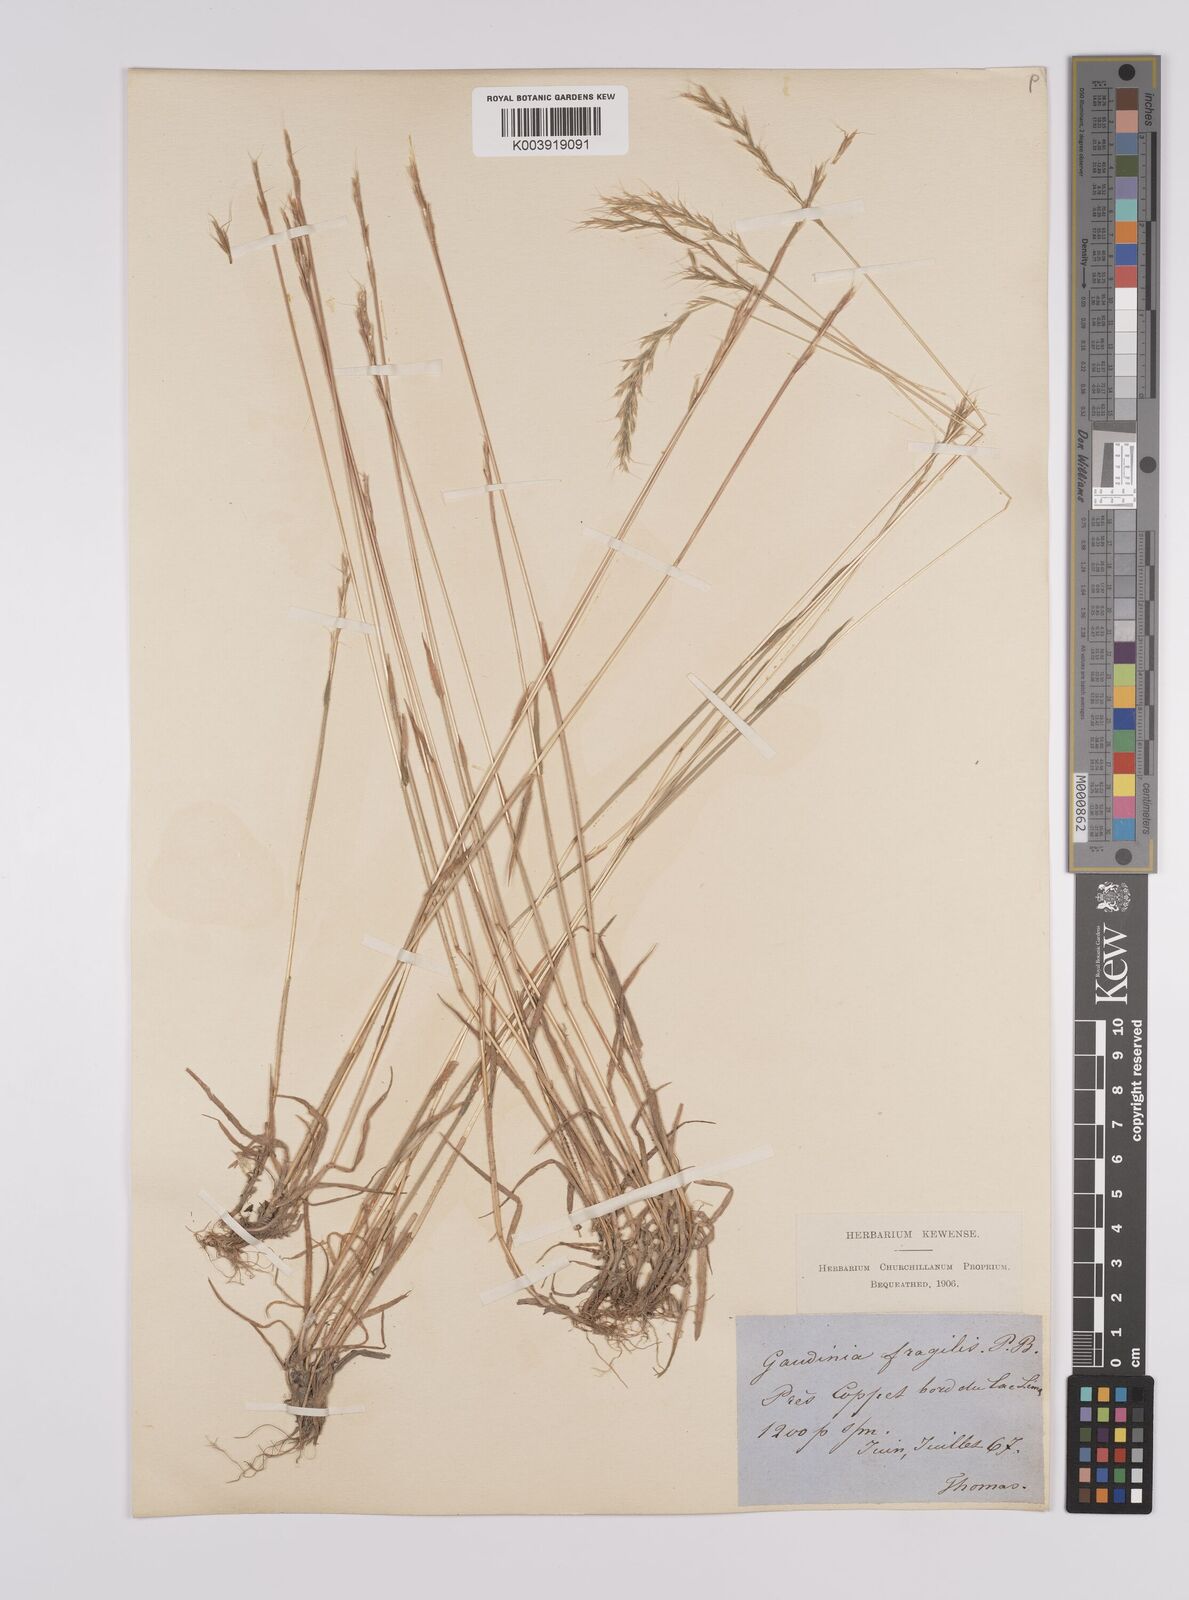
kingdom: Plantae
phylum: Tracheophyta
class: Liliopsida
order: Poales
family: Poaceae
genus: Gaudinia
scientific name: Gaudinia fragilis
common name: French oat-grass
